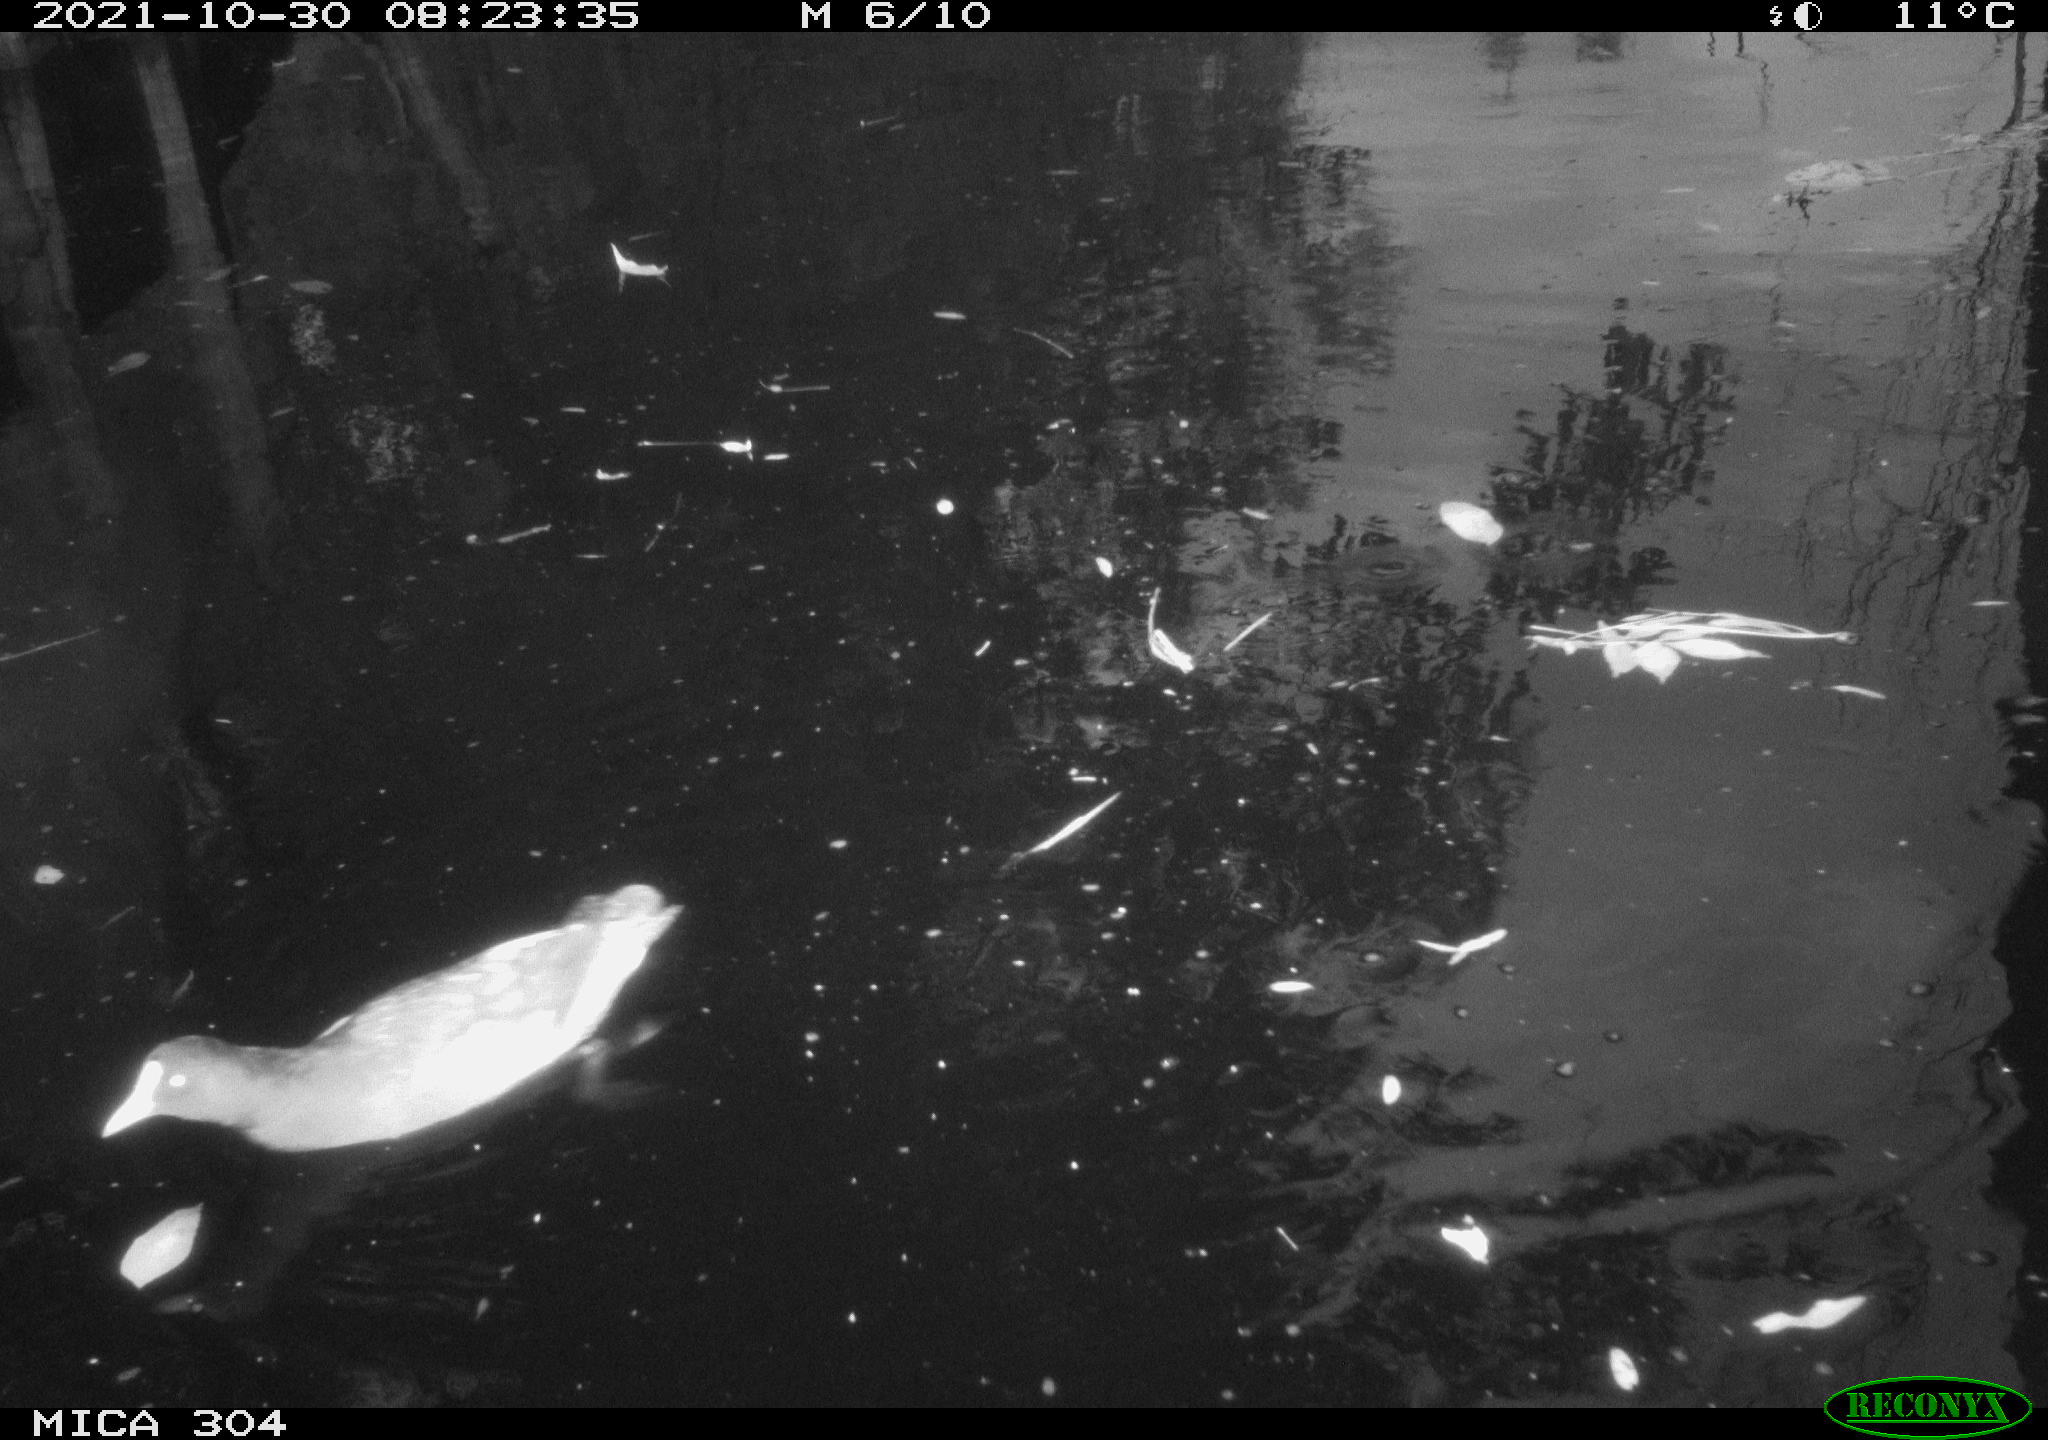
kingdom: Animalia
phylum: Chordata
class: Aves
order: Gruiformes
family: Rallidae
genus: Gallinula
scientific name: Gallinula chloropus
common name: Common moorhen
